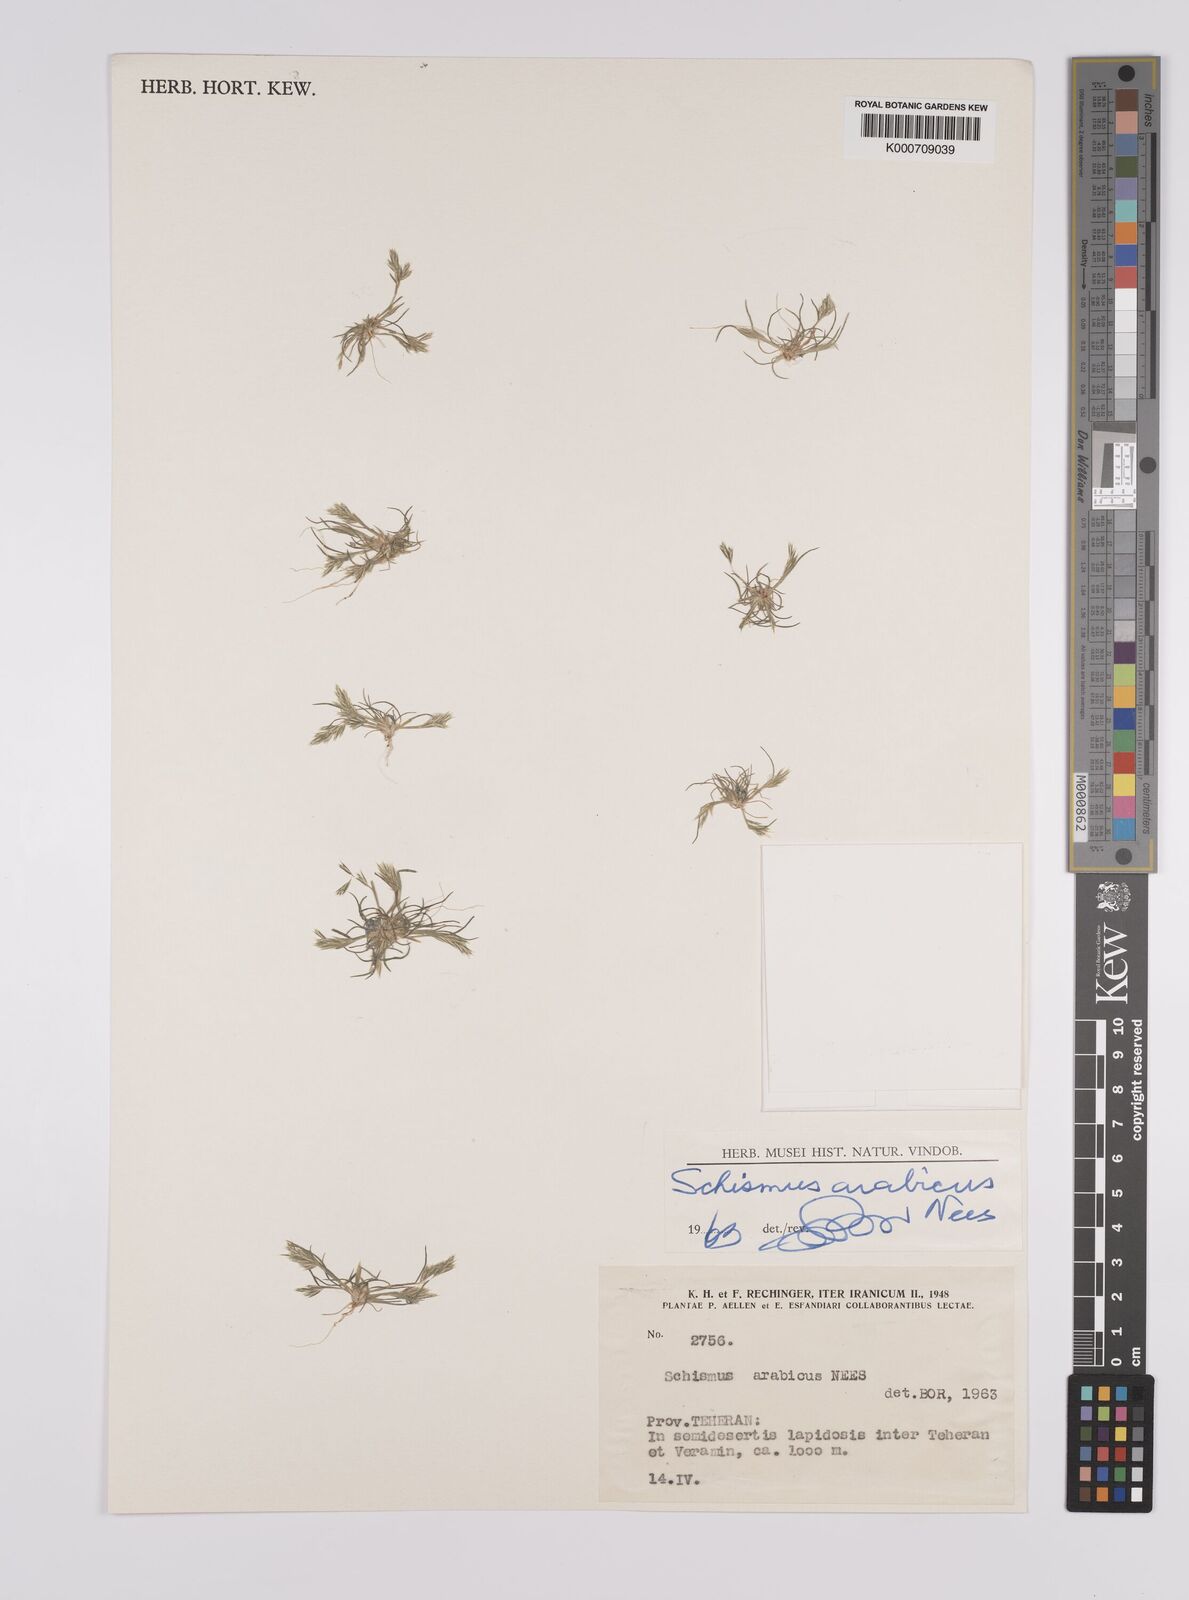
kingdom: Plantae
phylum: Tracheophyta
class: Liliopsida
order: Poales
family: Poaceae
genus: Schismus
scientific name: Schismus arabicus
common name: Arabian schismus
